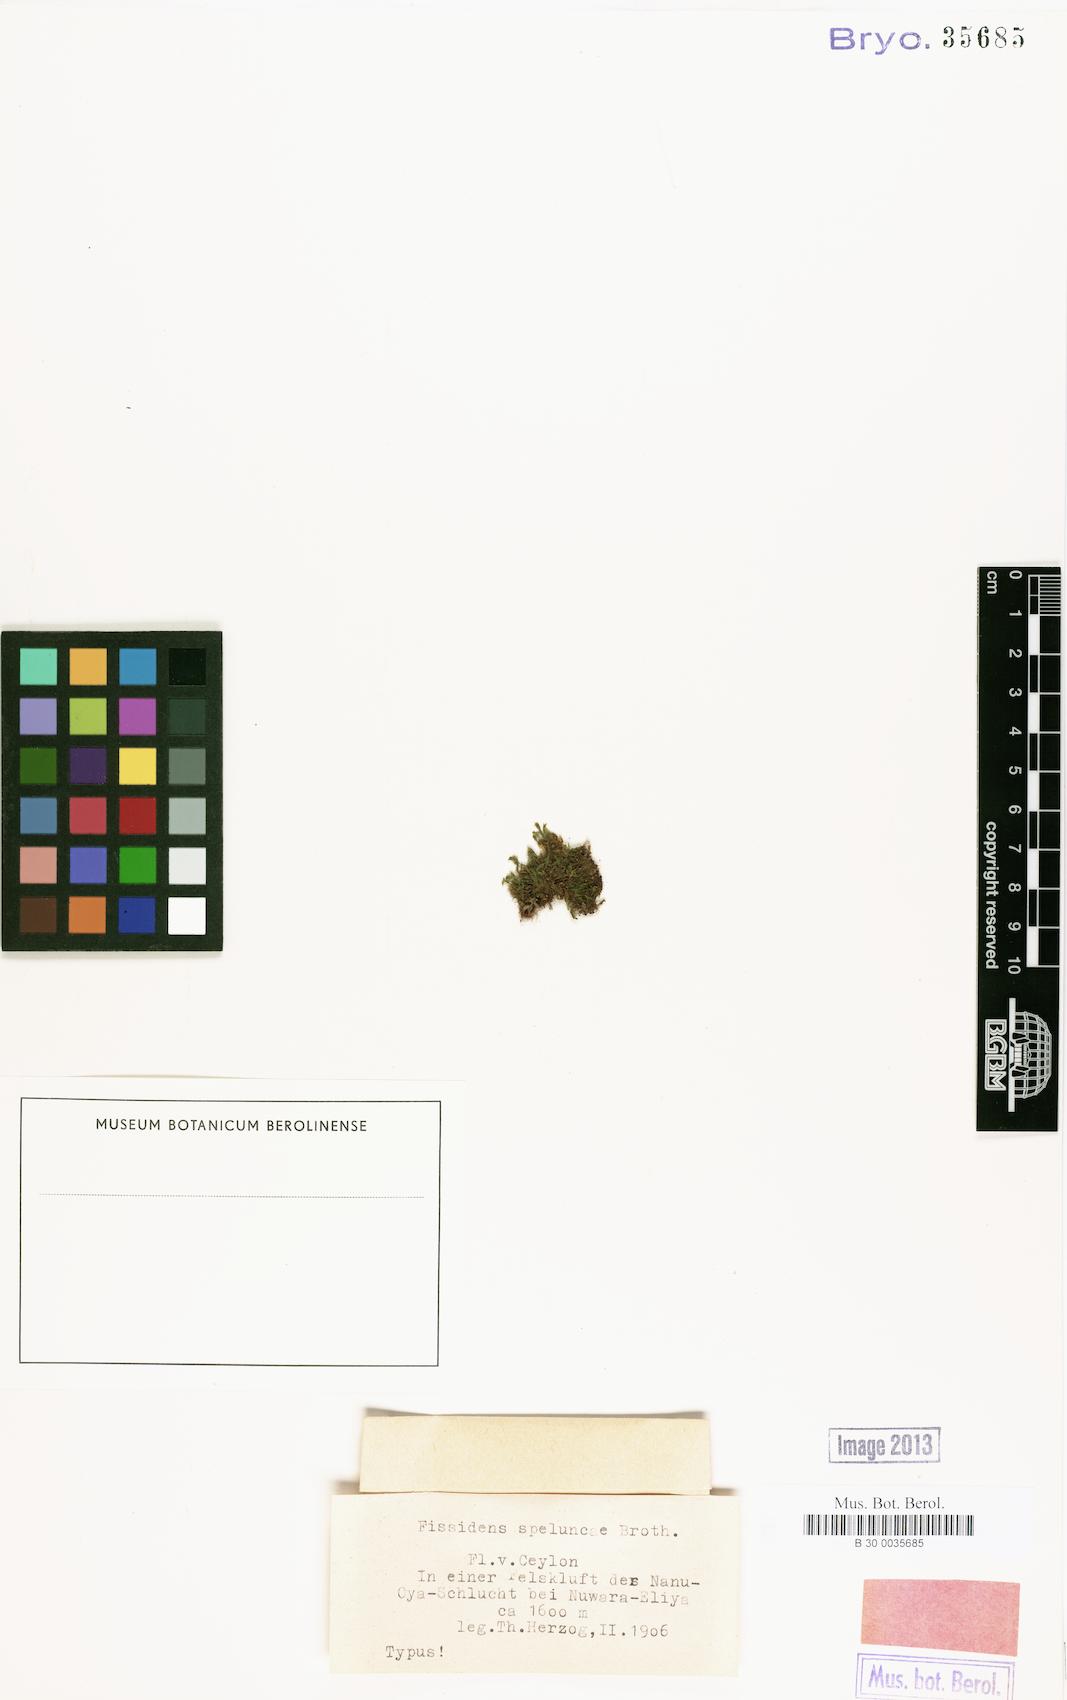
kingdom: Plantae
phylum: Bryophyta
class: Bryopsida
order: Dicranales
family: Fissidentaceae
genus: Fissidens
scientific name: Fissidens flaccidus
